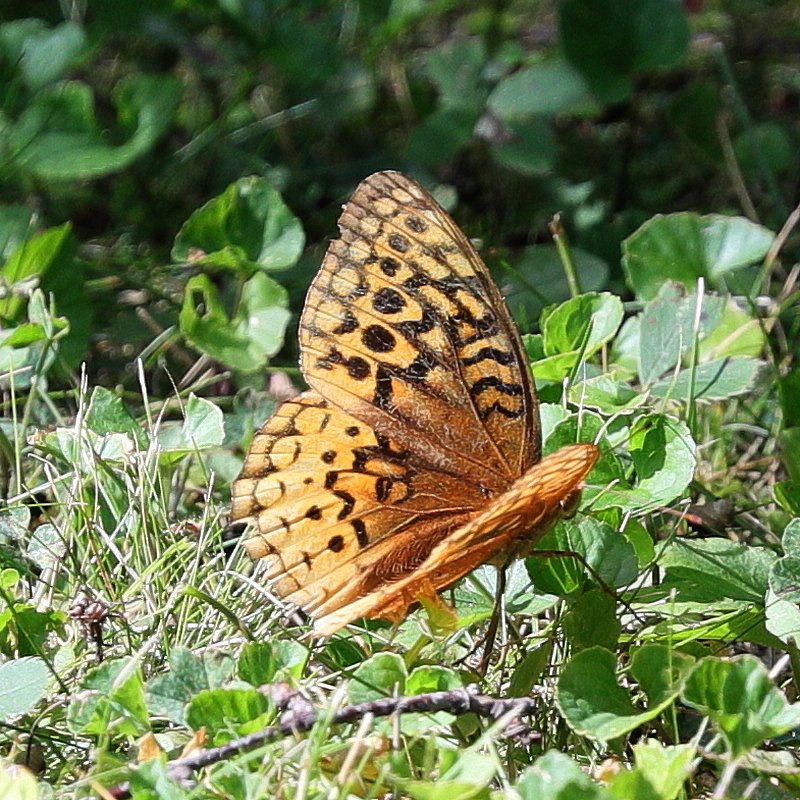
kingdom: Animalia
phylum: Arthropoda
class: Insecta
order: Lepidoptera
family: Nymphalidae
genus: Speyeria
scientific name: Speyeria cybele
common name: Great Spangled Fritillary
